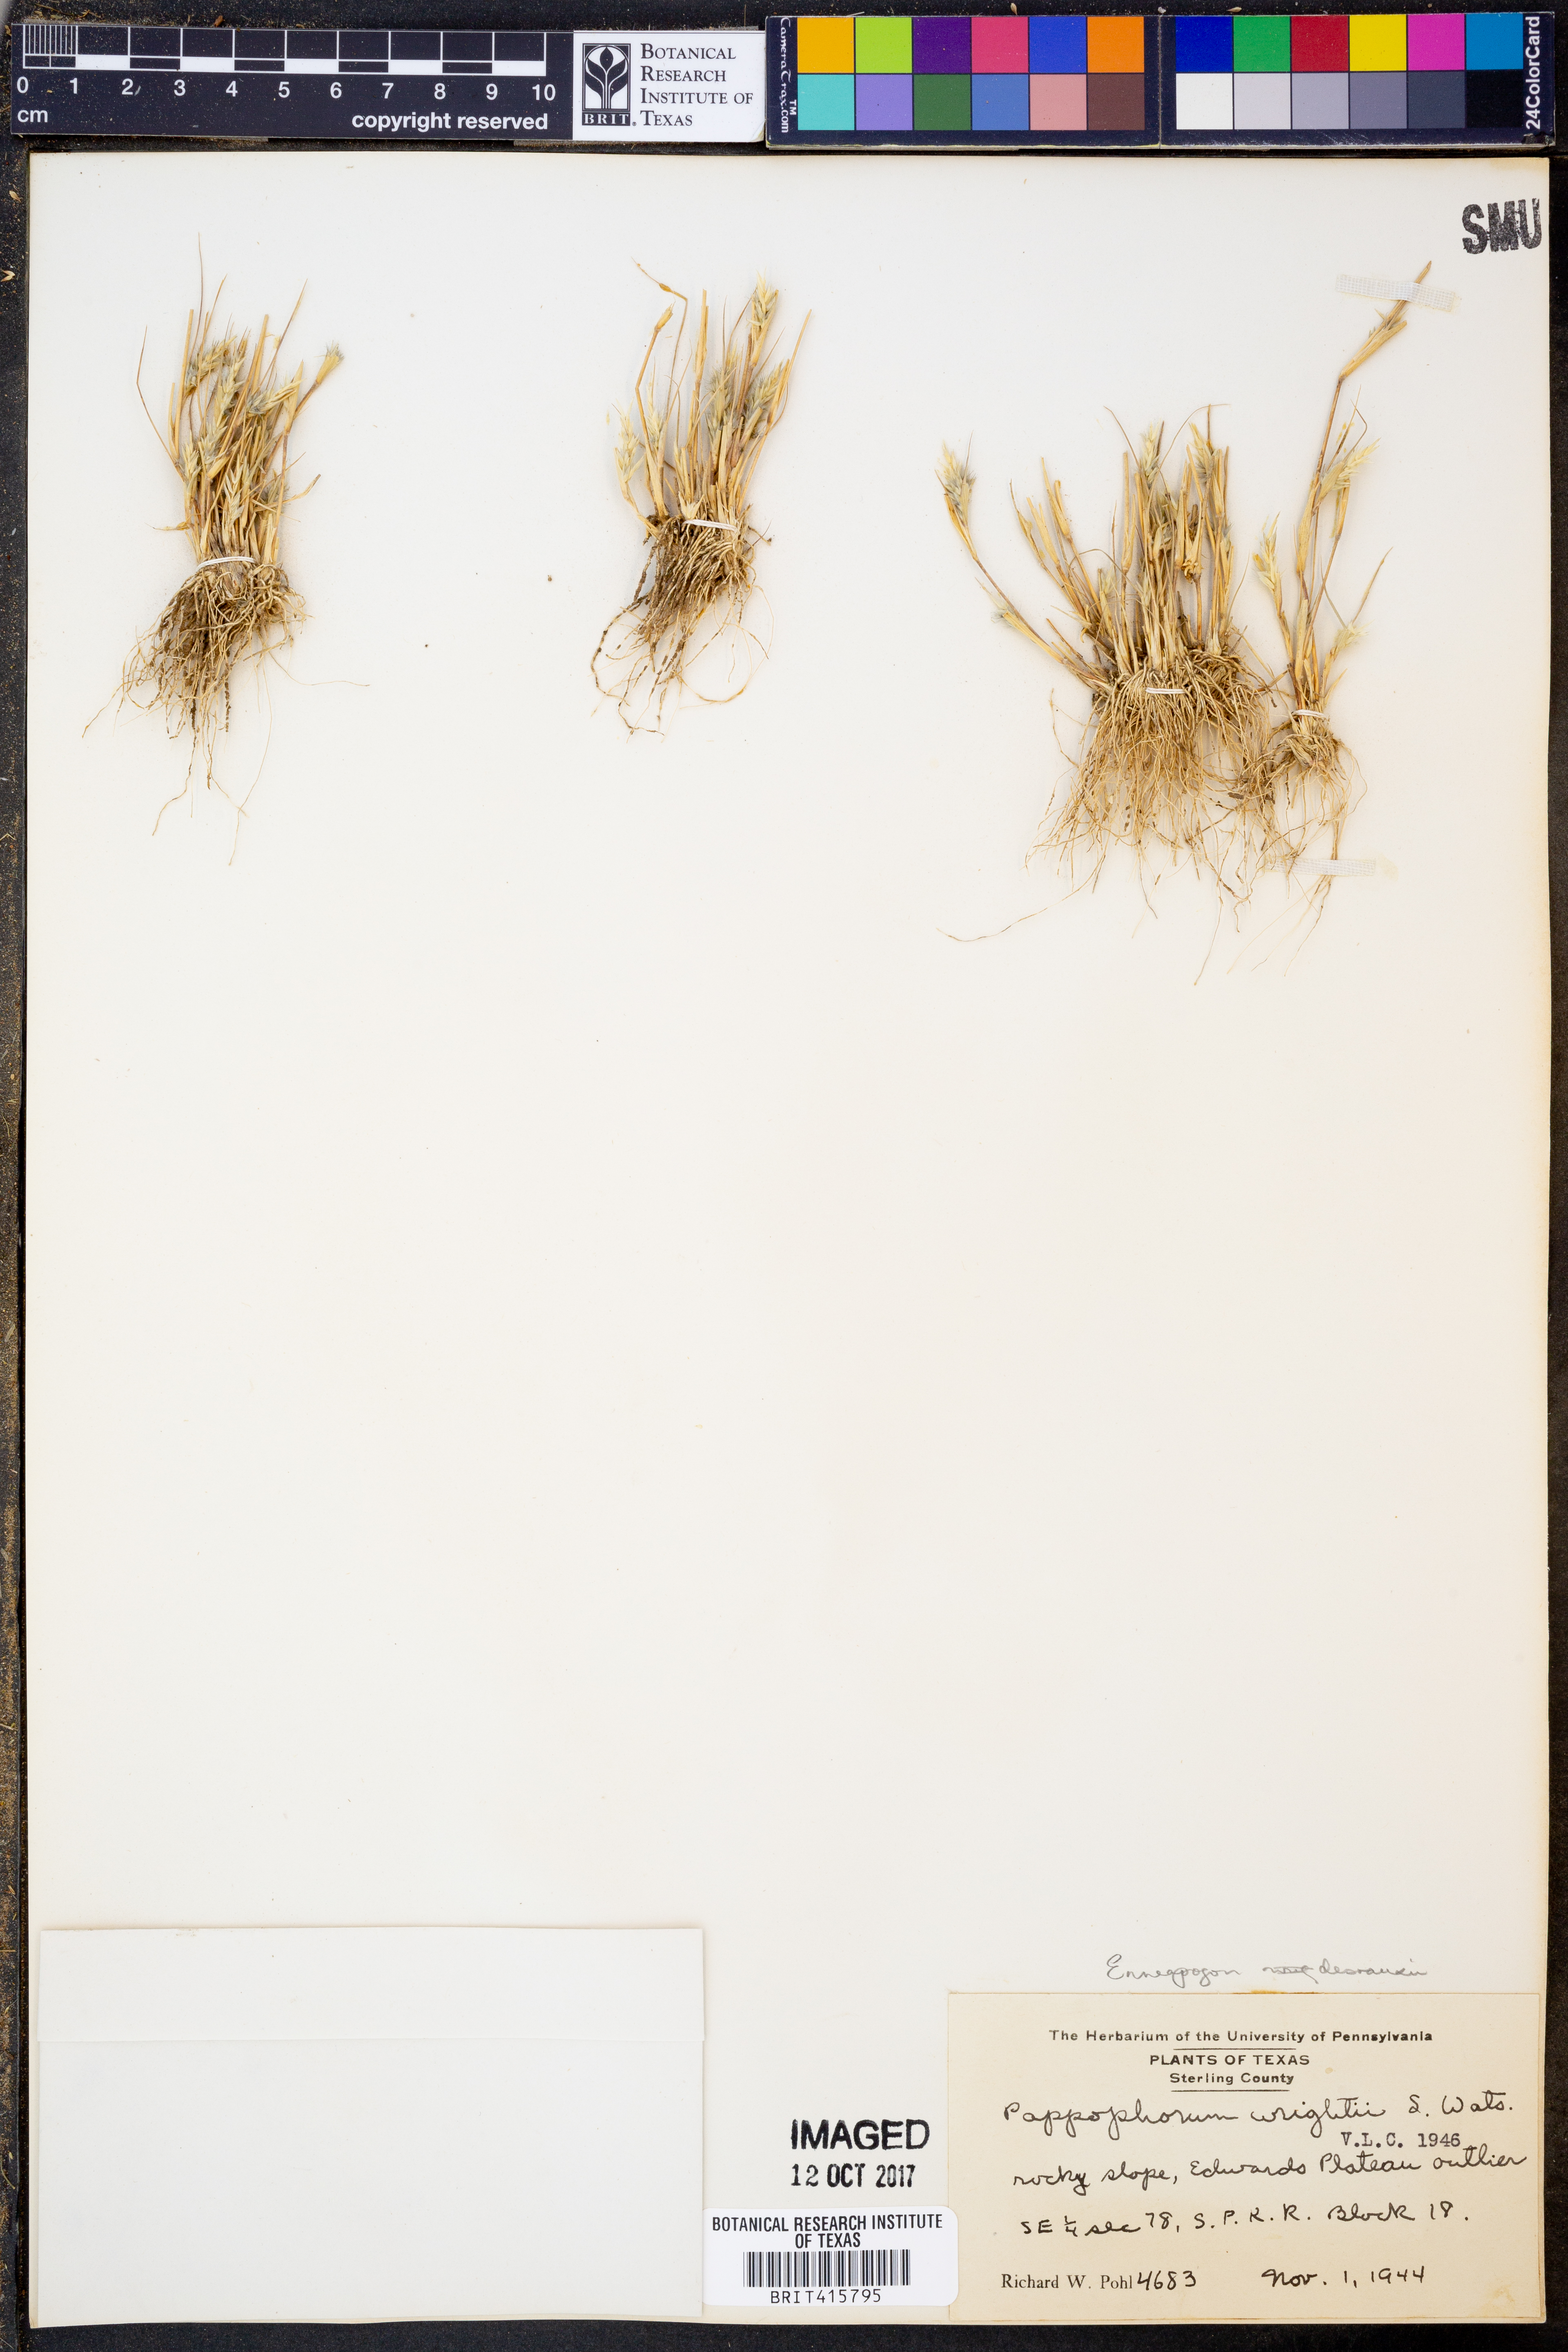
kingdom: Plantae
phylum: Tracheophyta
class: Liliopsida
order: Poales
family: Poaceae
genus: Enneapogon
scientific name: Enneapogon desvauxii
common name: Feather pappus grass
